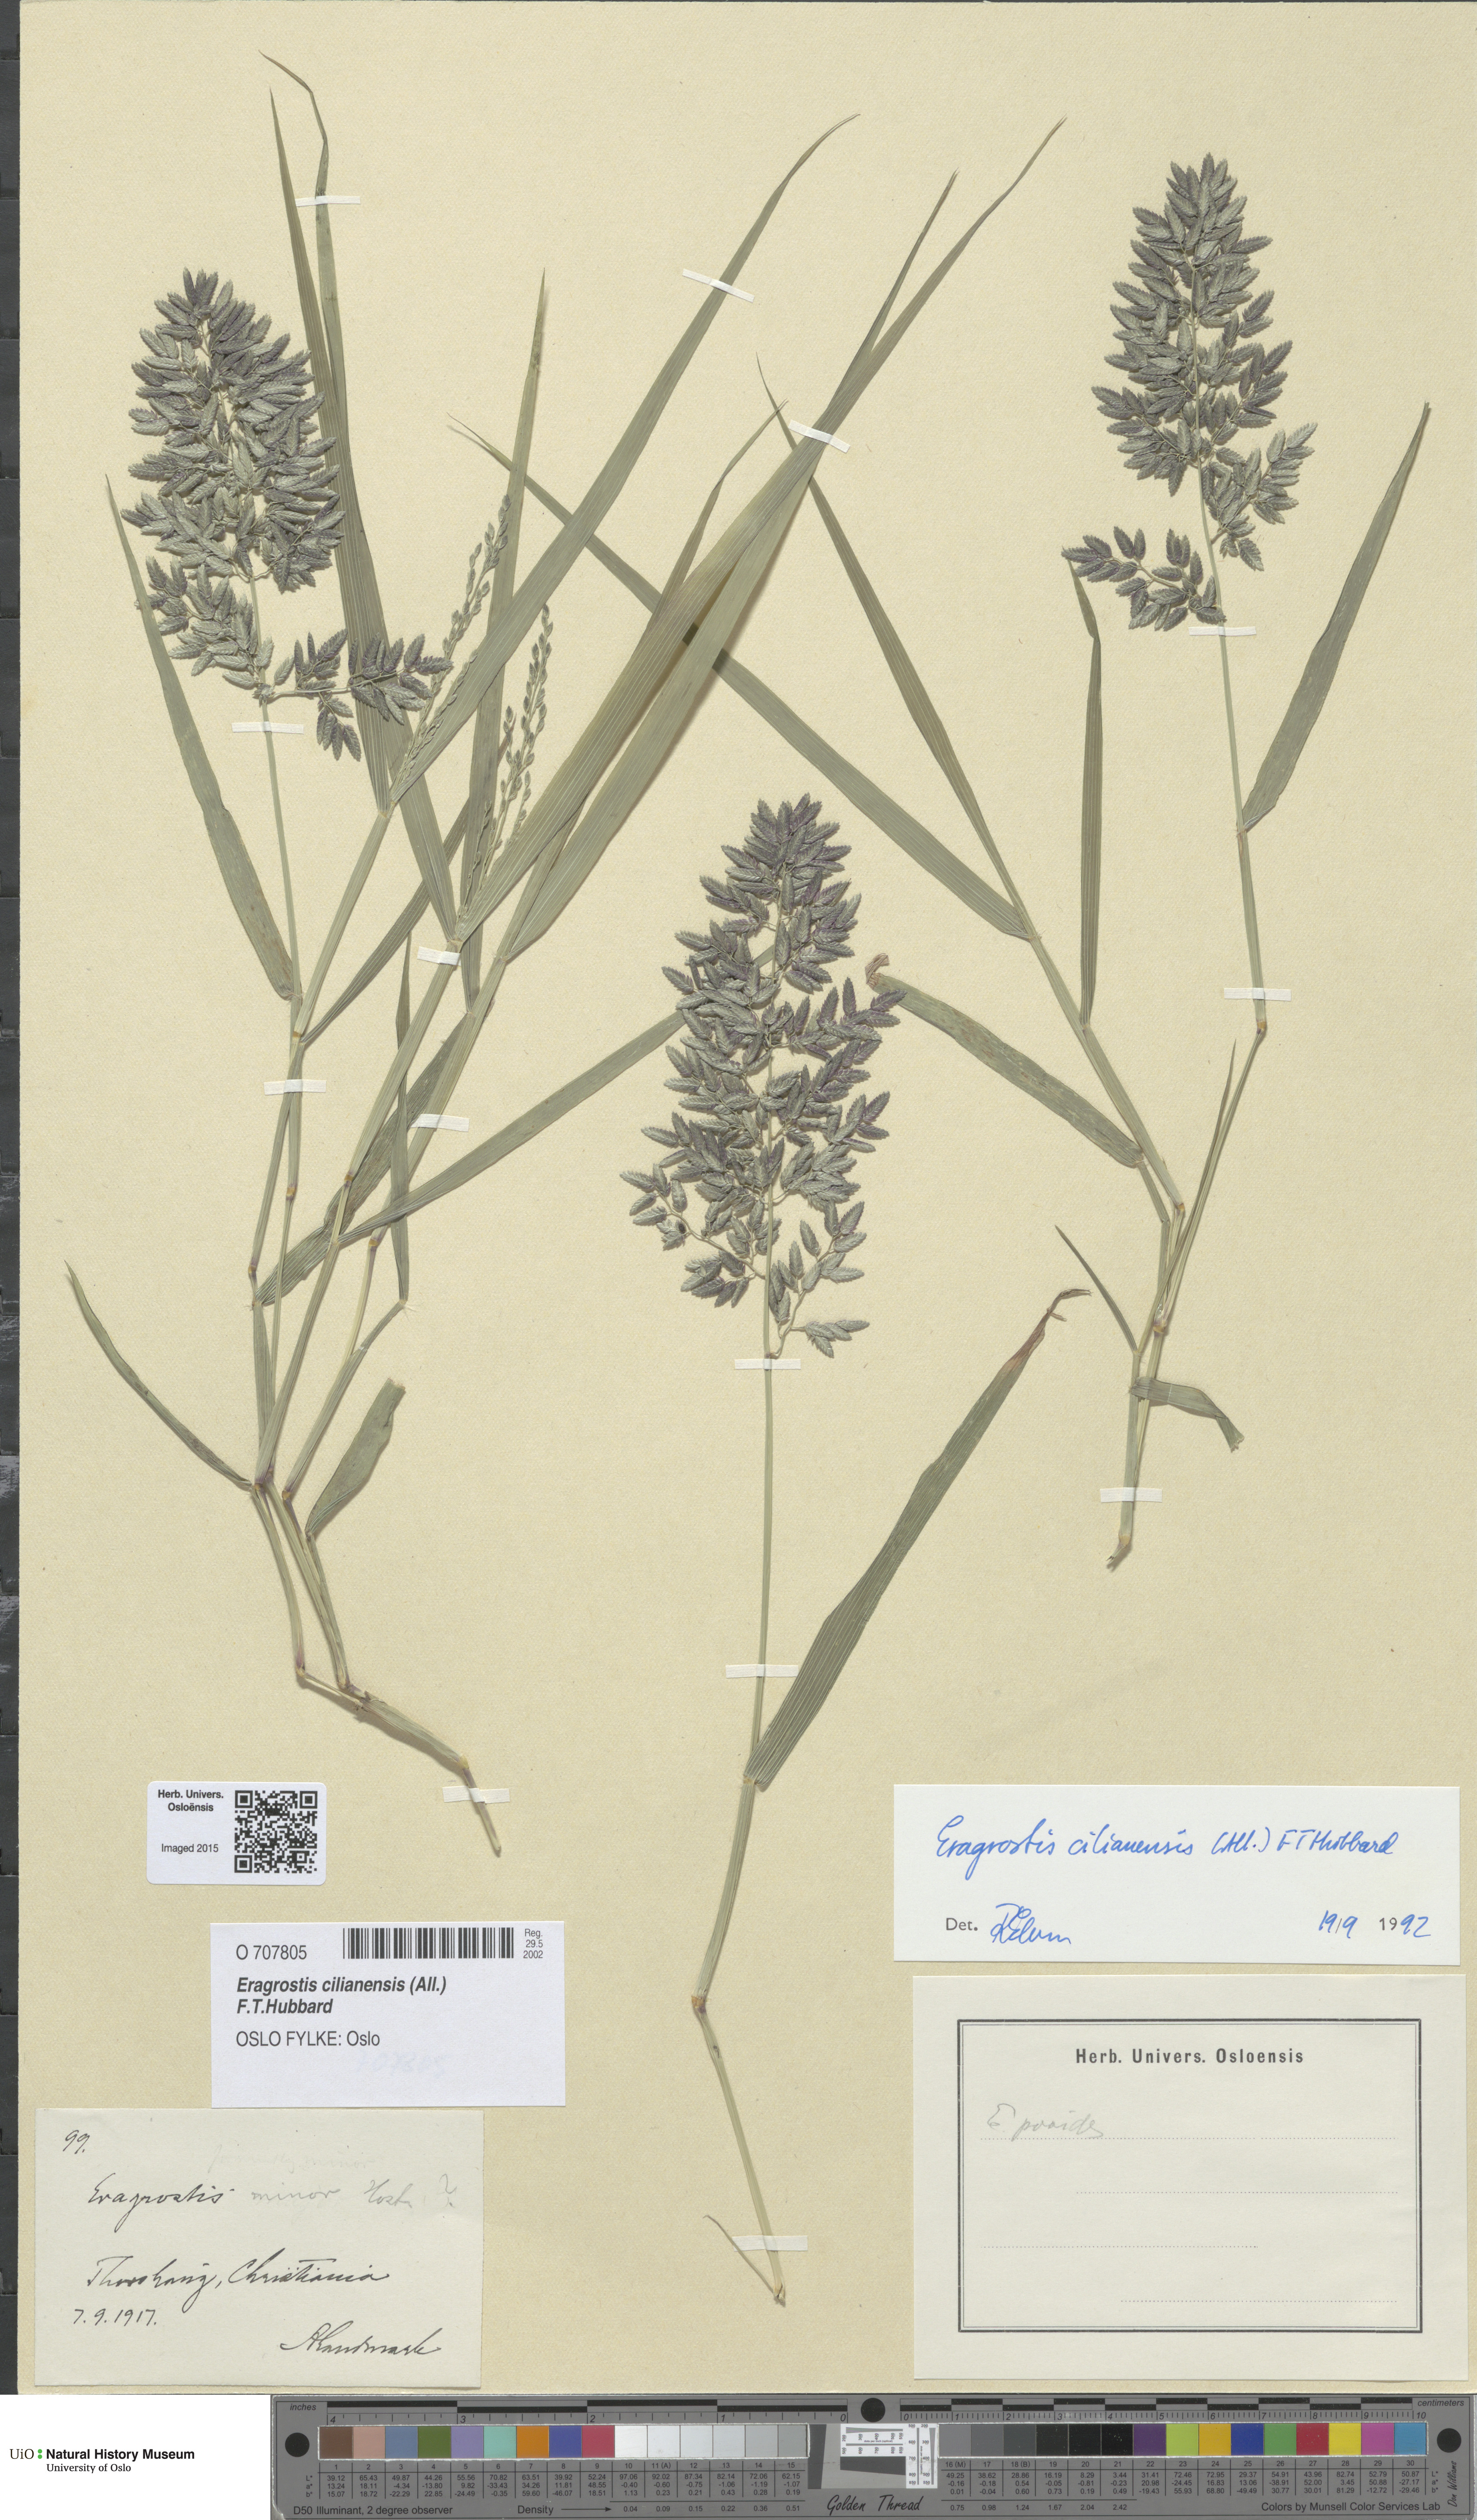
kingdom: Plantae
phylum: Tracheophyta
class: Liliopsida
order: Poales
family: Poaceae
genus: Eragrostis
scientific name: Eragrostis cilianensis
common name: Stinkgrass
